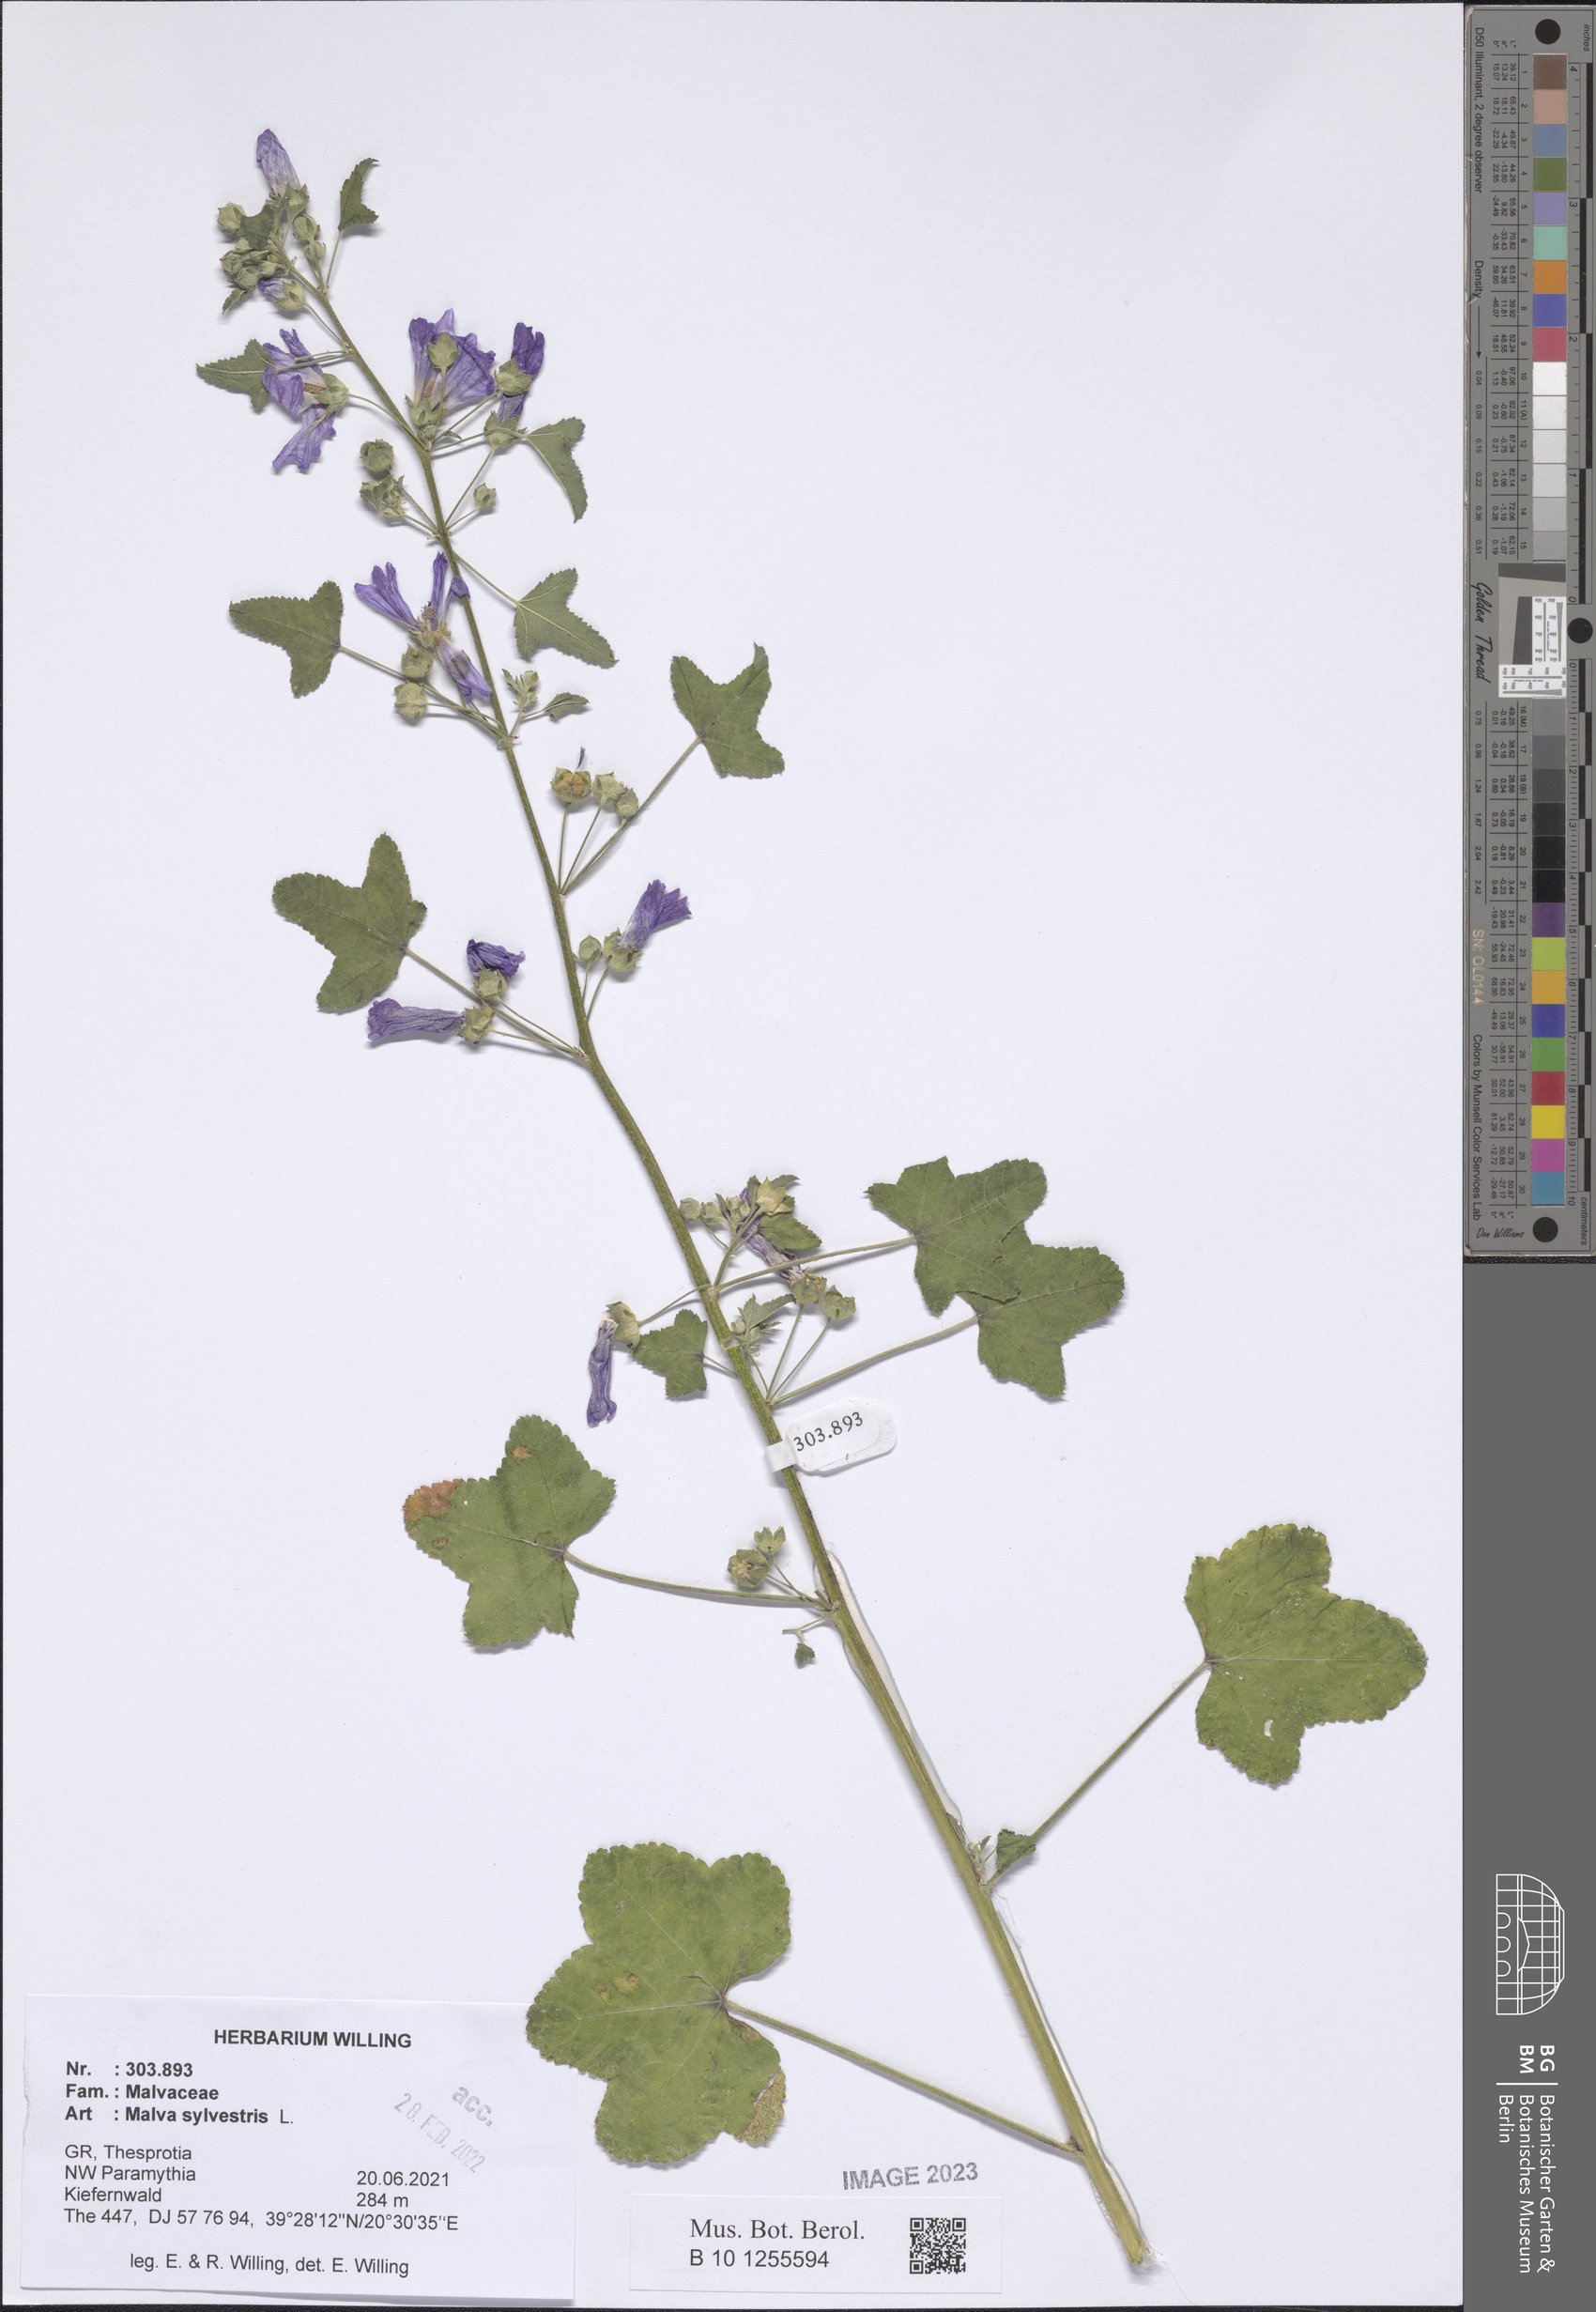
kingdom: Plantae
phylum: Tracheophyta
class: Magnoliopsida
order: Malvales
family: Malvaceae
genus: Malva
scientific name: Malva sylvestris
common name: Common mallow
